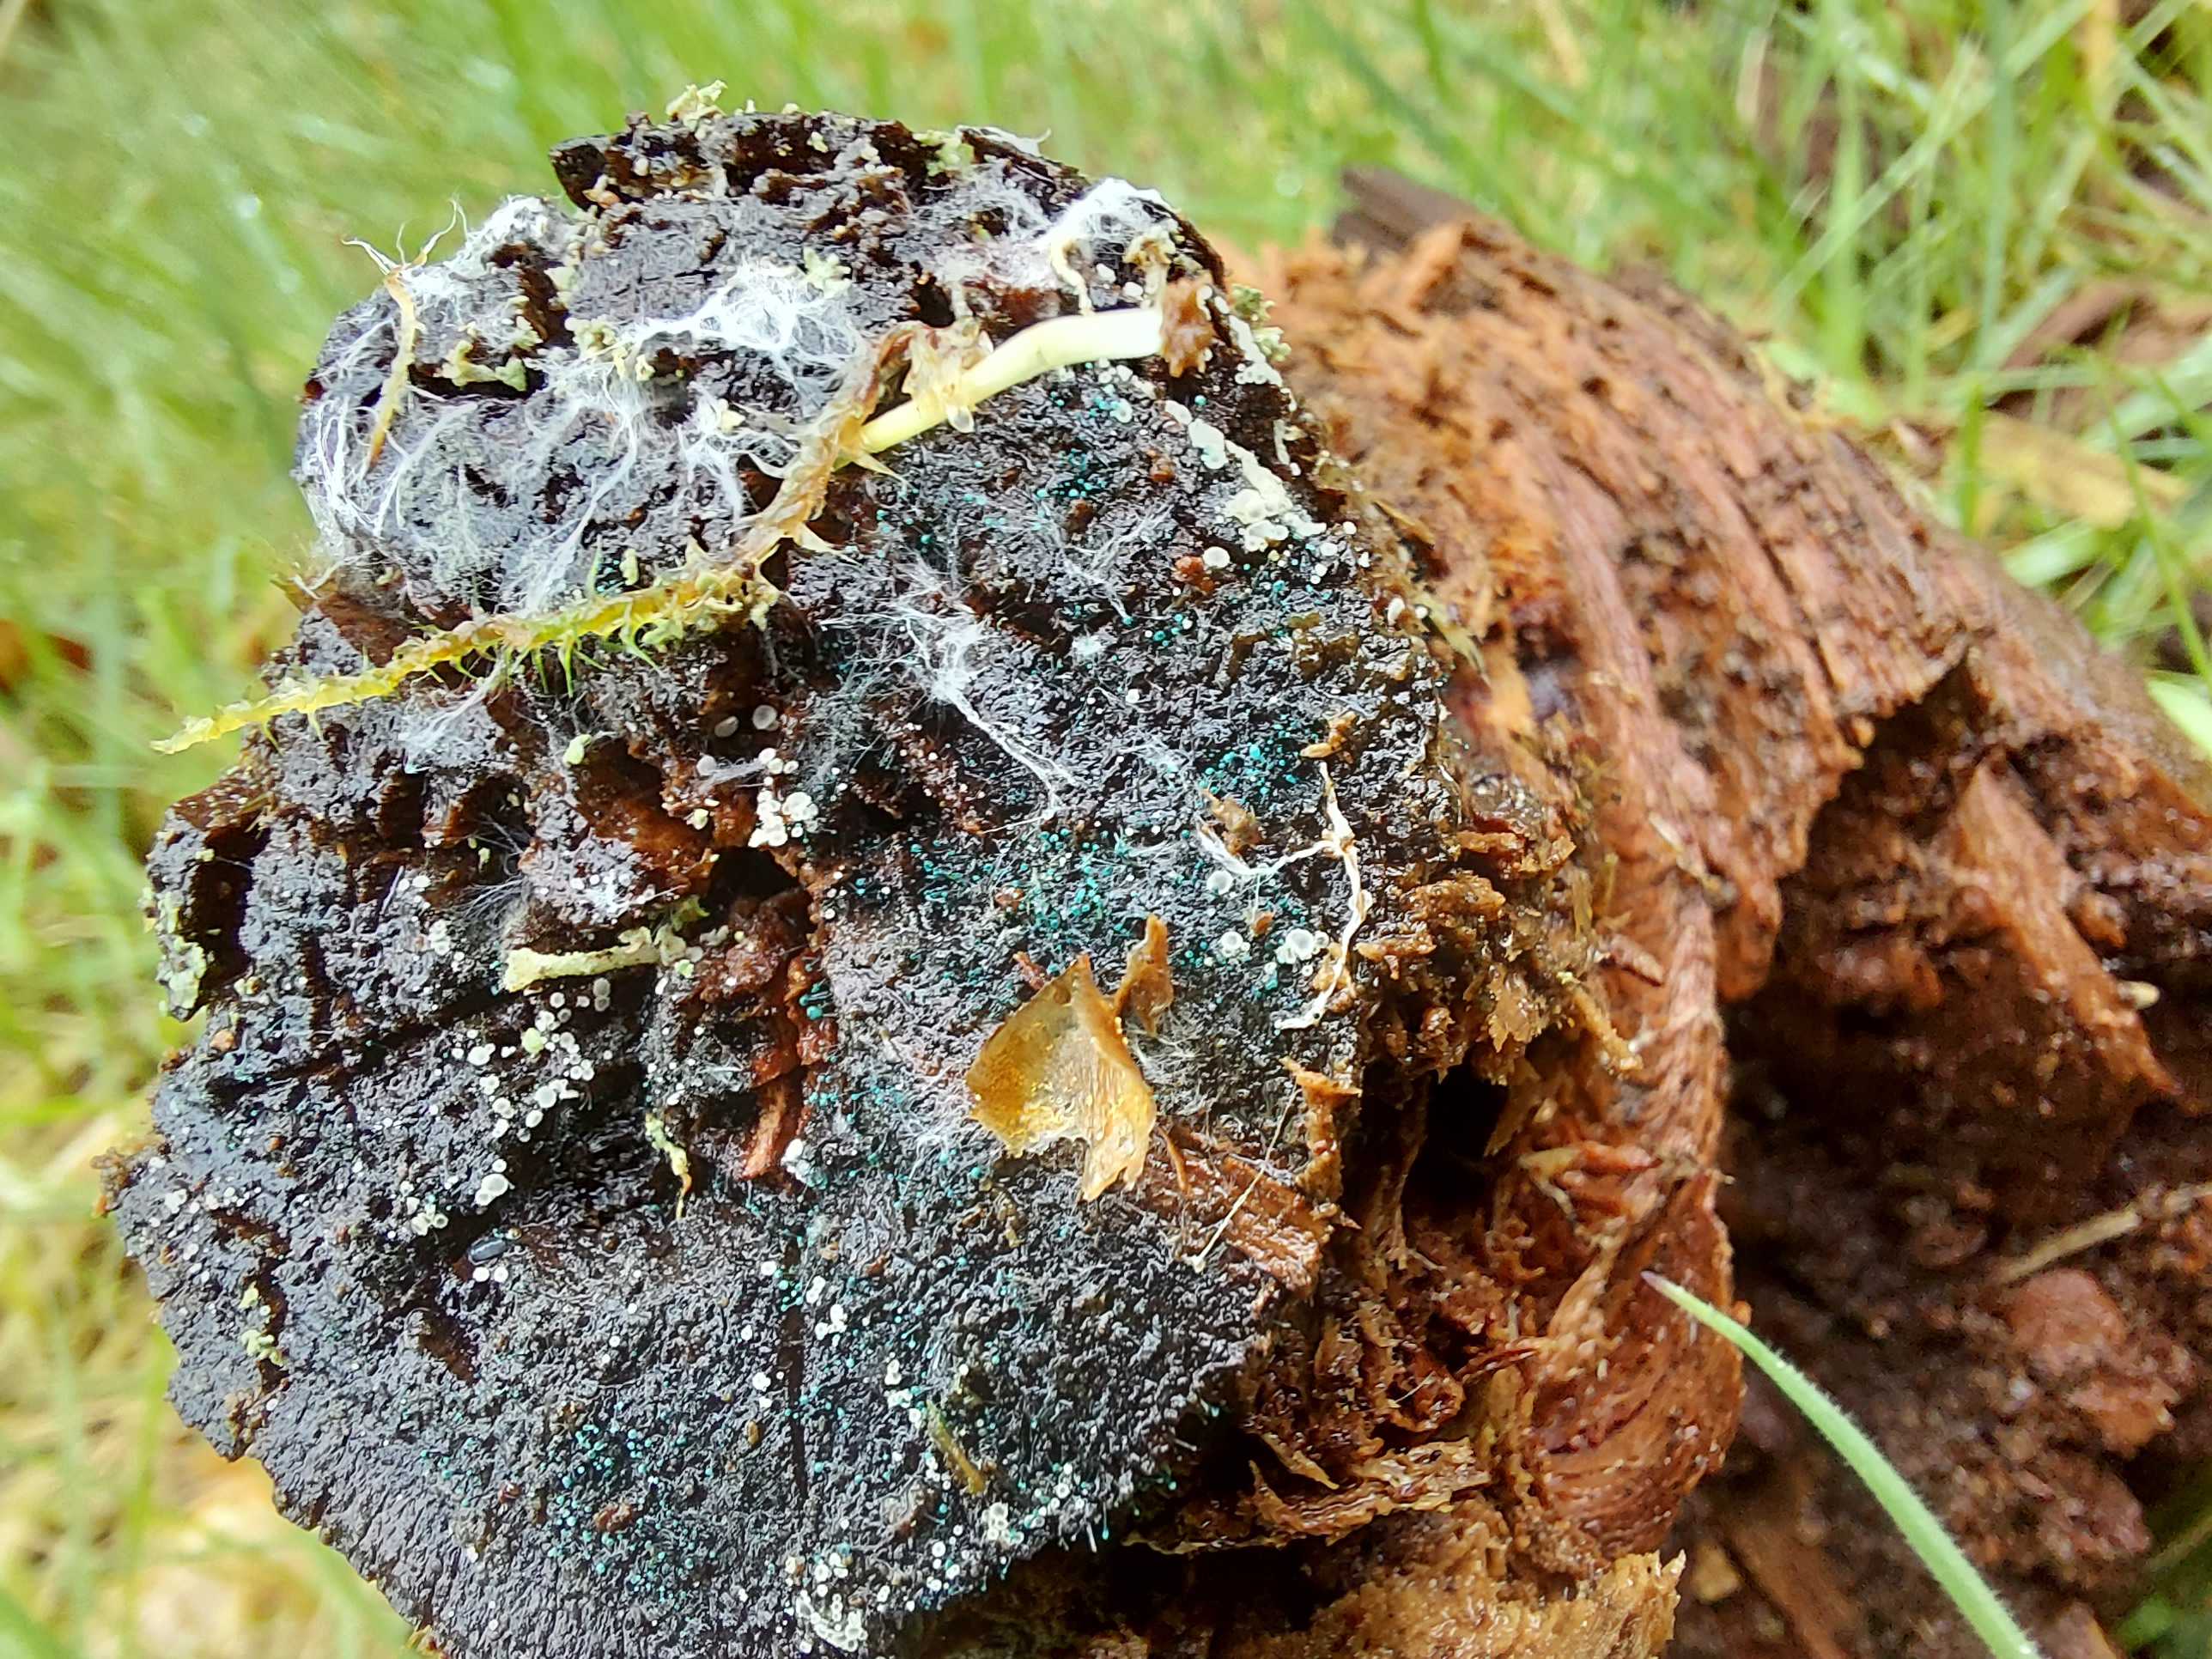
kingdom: Fungi
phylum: Ascomycota
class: Leotiomycetes
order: Leotiales
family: Tympanidaceae
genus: Dendrostilbella
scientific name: Dendrostilbella smaragdina
